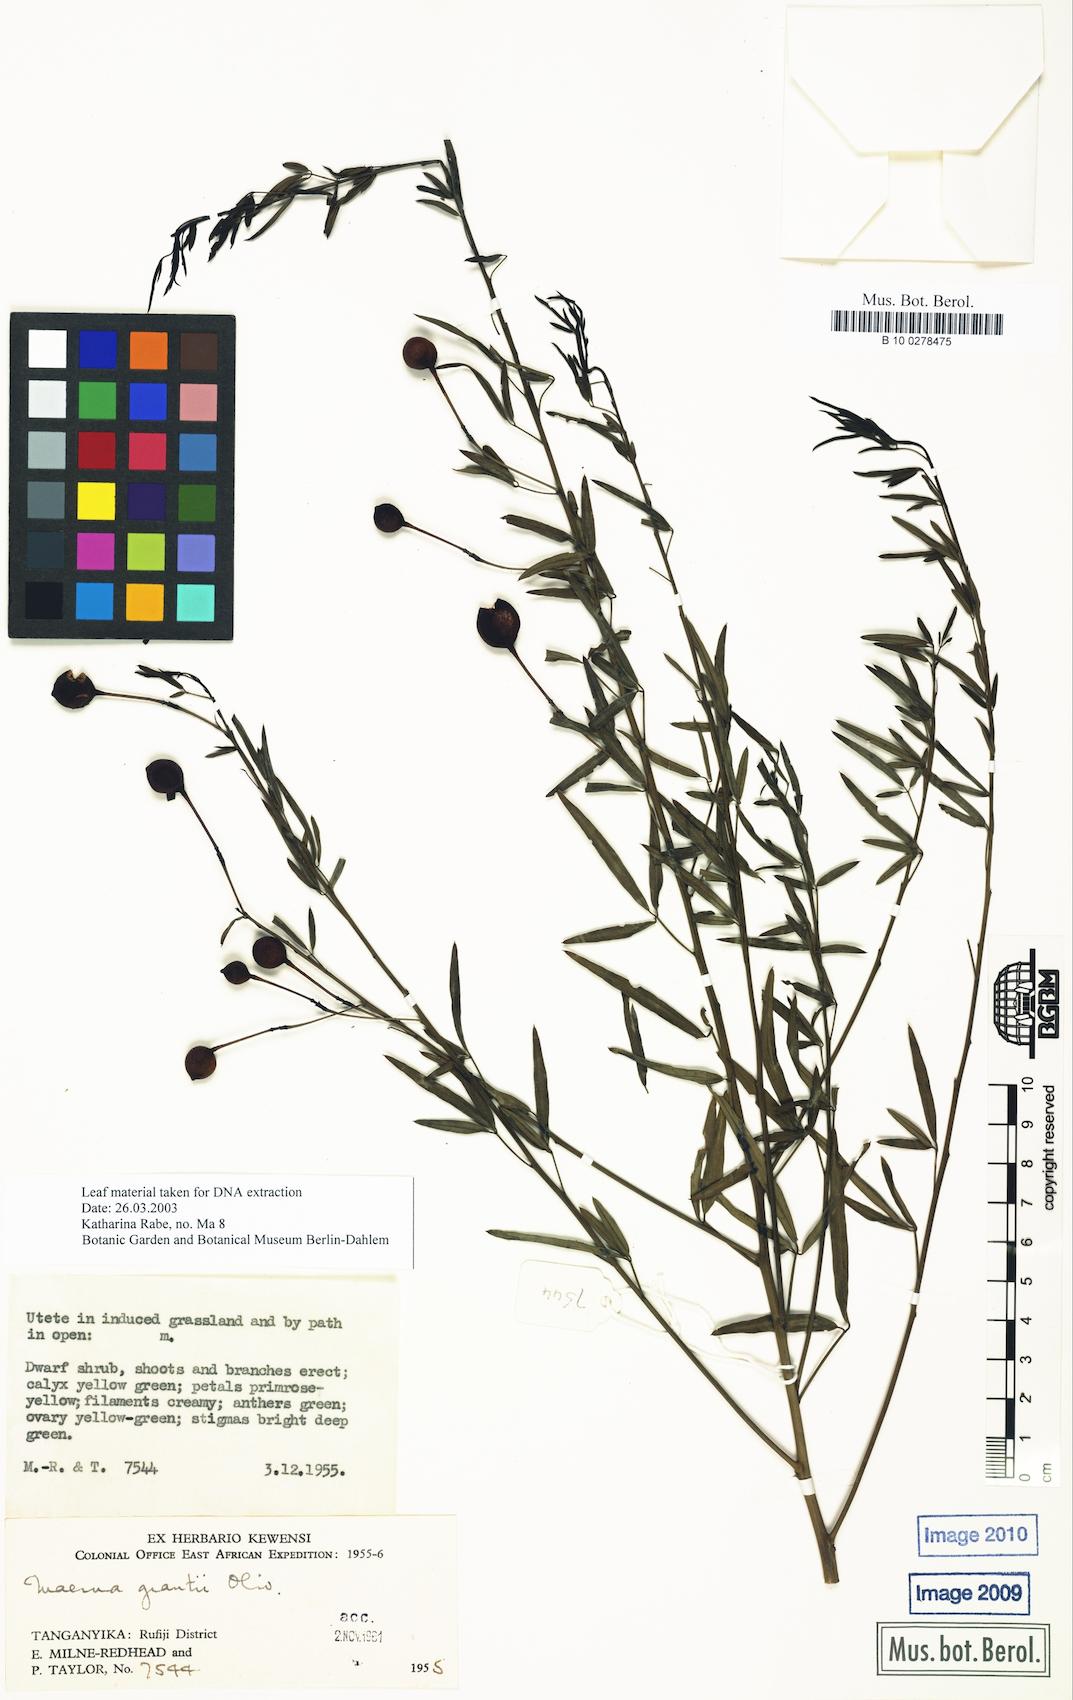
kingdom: Plantae
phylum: Tracheophyta
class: Magnoliopsida
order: Brassicales
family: Capparaceae
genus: Maerua
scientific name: Maerua grantii
